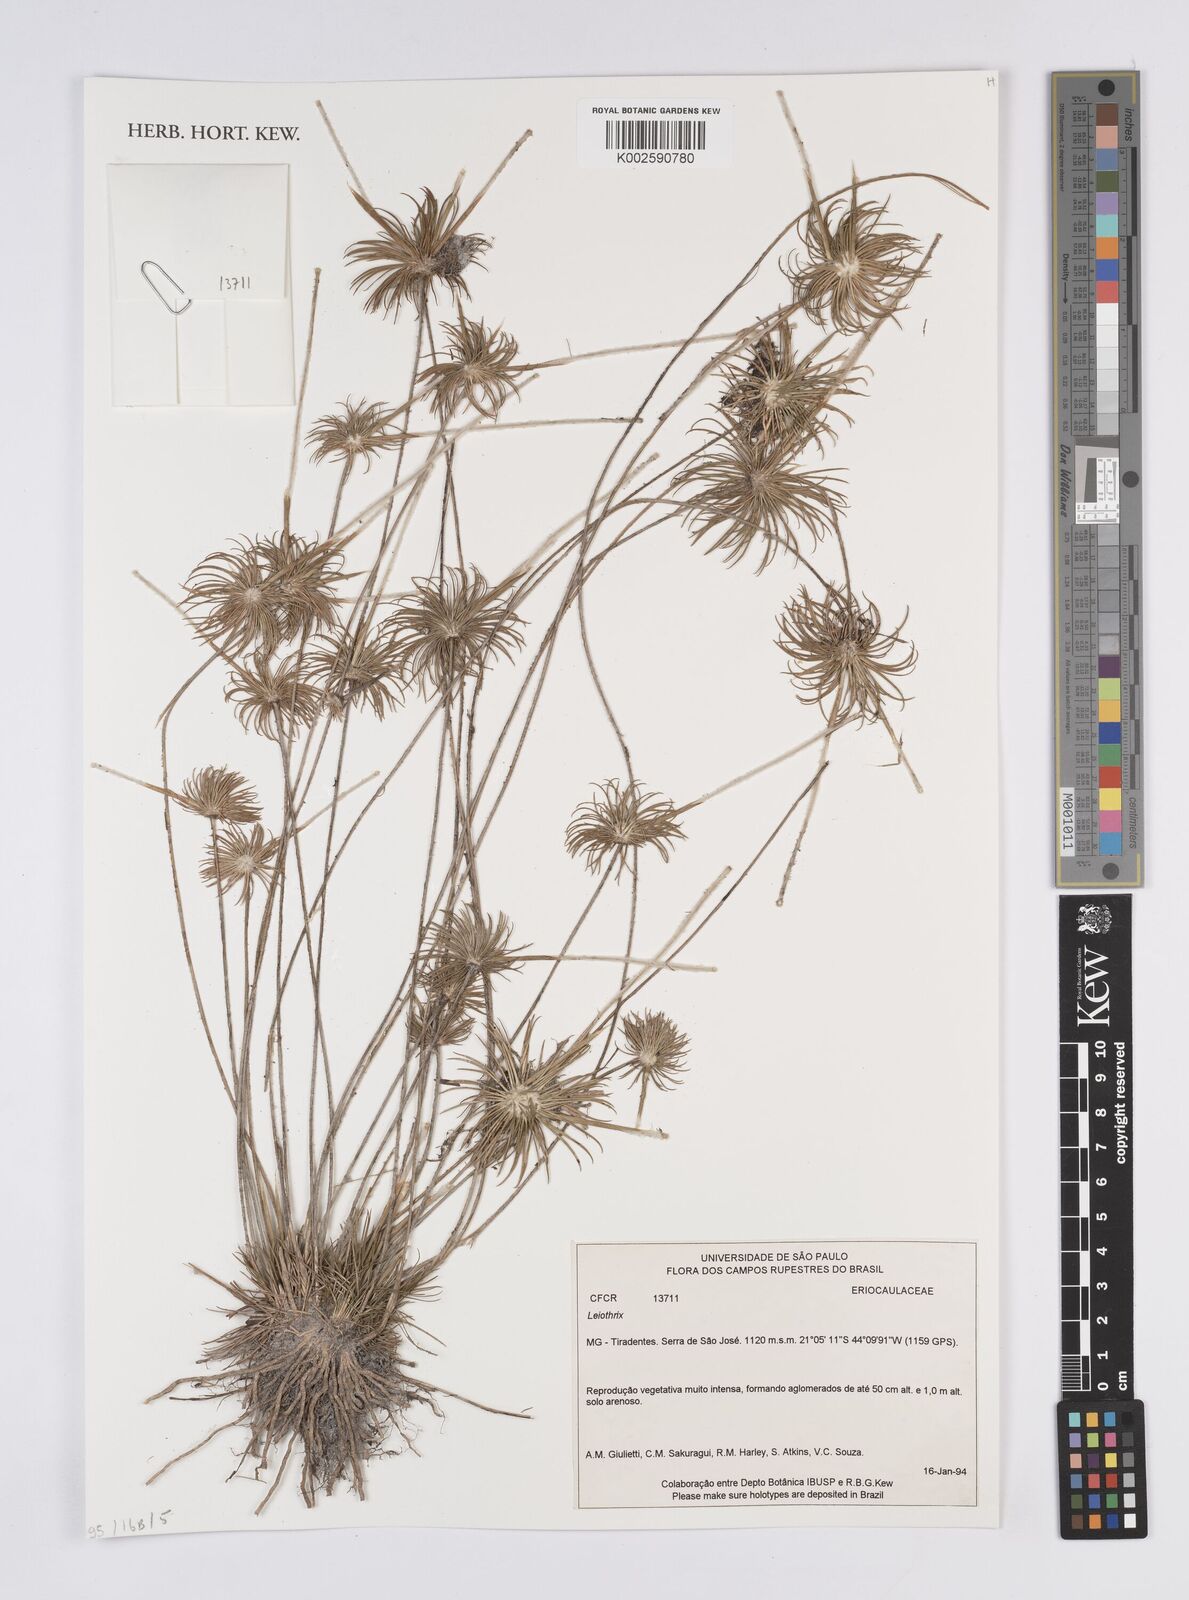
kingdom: Plantae
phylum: Tracheophyta
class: Liliopsida
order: Poales
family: Eriocaulaceae
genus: Leiothrix
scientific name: Leiothrix
